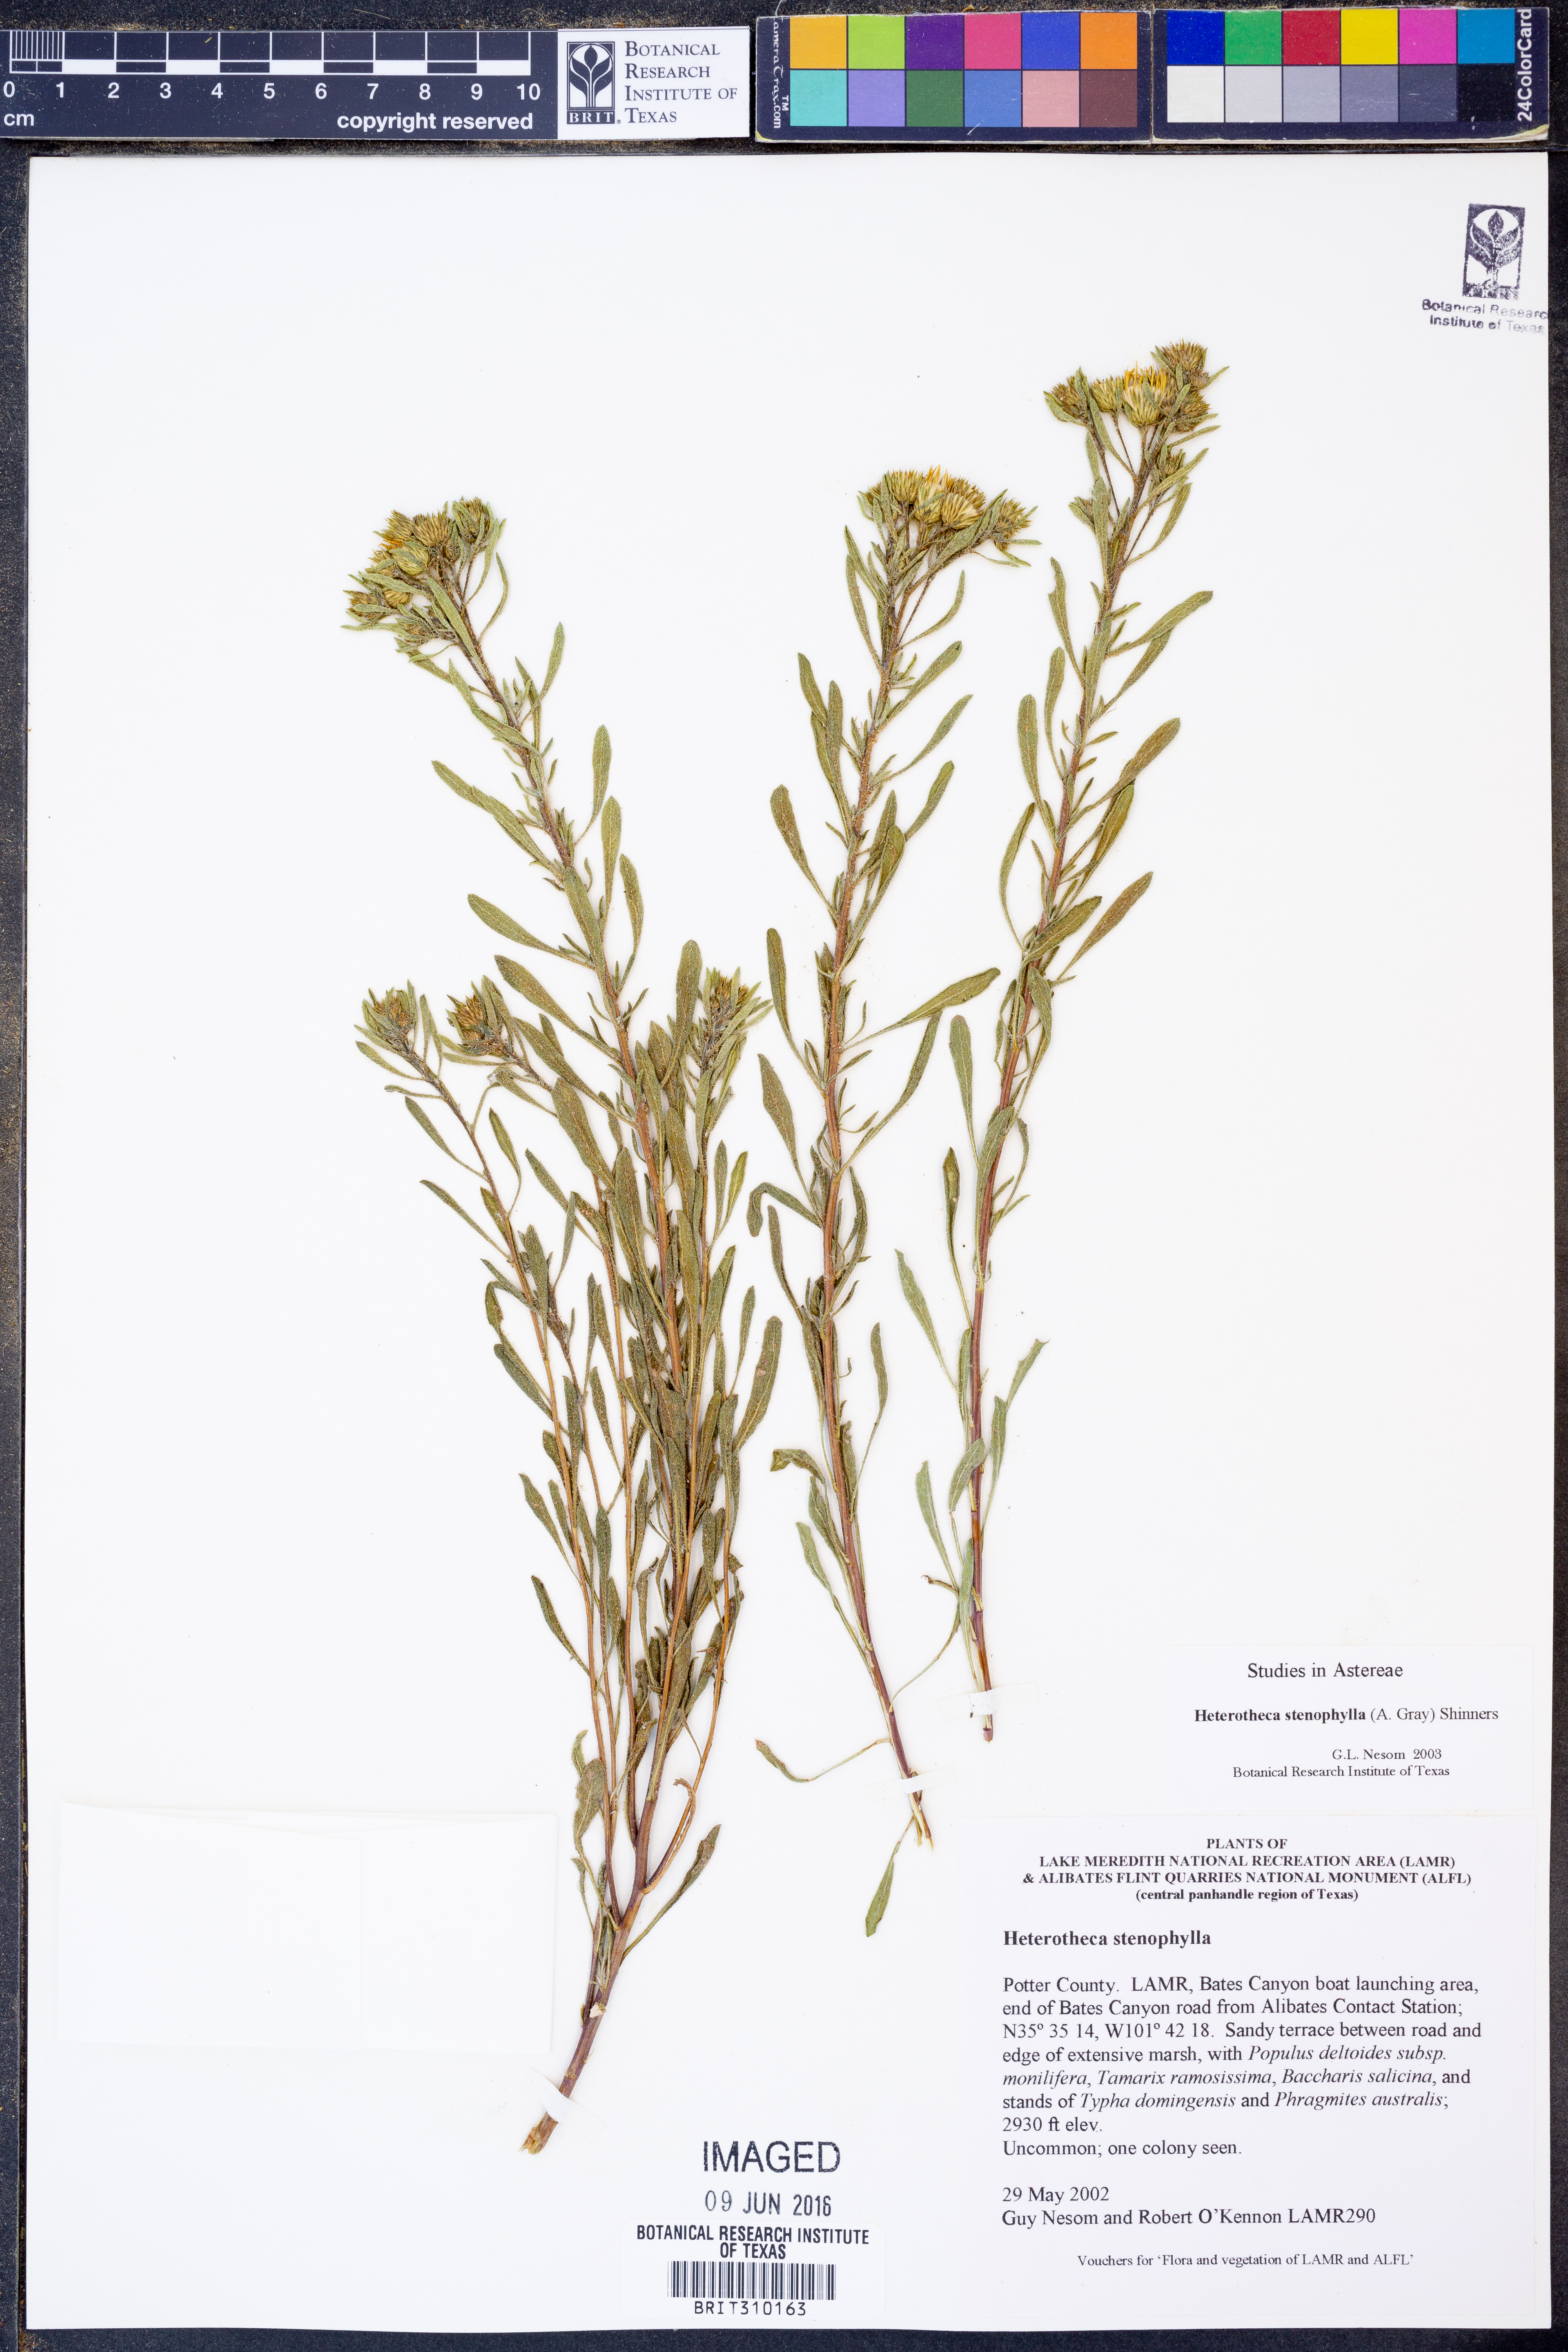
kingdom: Plantae
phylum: Tracheophyta
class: Magnoliopsida
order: Asterales
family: Asteraceae
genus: Heterotheca
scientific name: Heterotheca stenophylla
